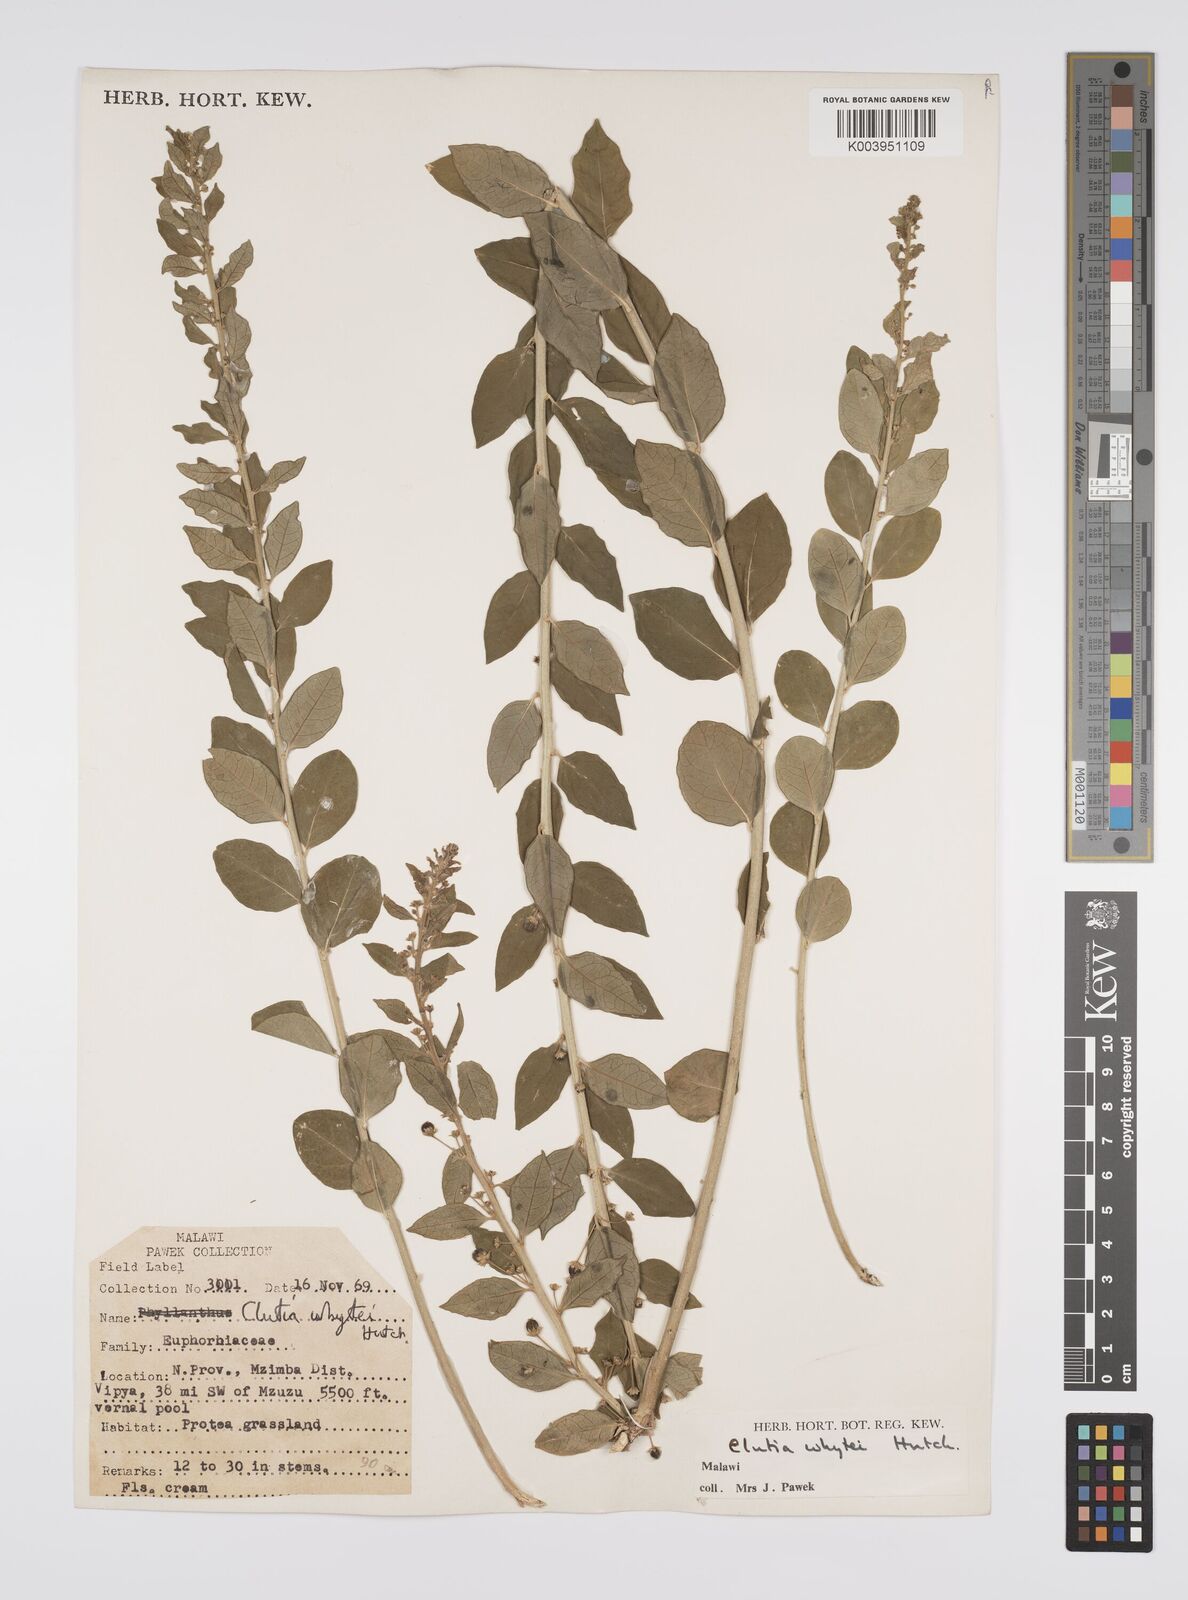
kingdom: Plantae
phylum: Tracheophyta
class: Magnoliopsida
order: Malpighiales
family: Peraceae
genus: Clutia
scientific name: Clutia
